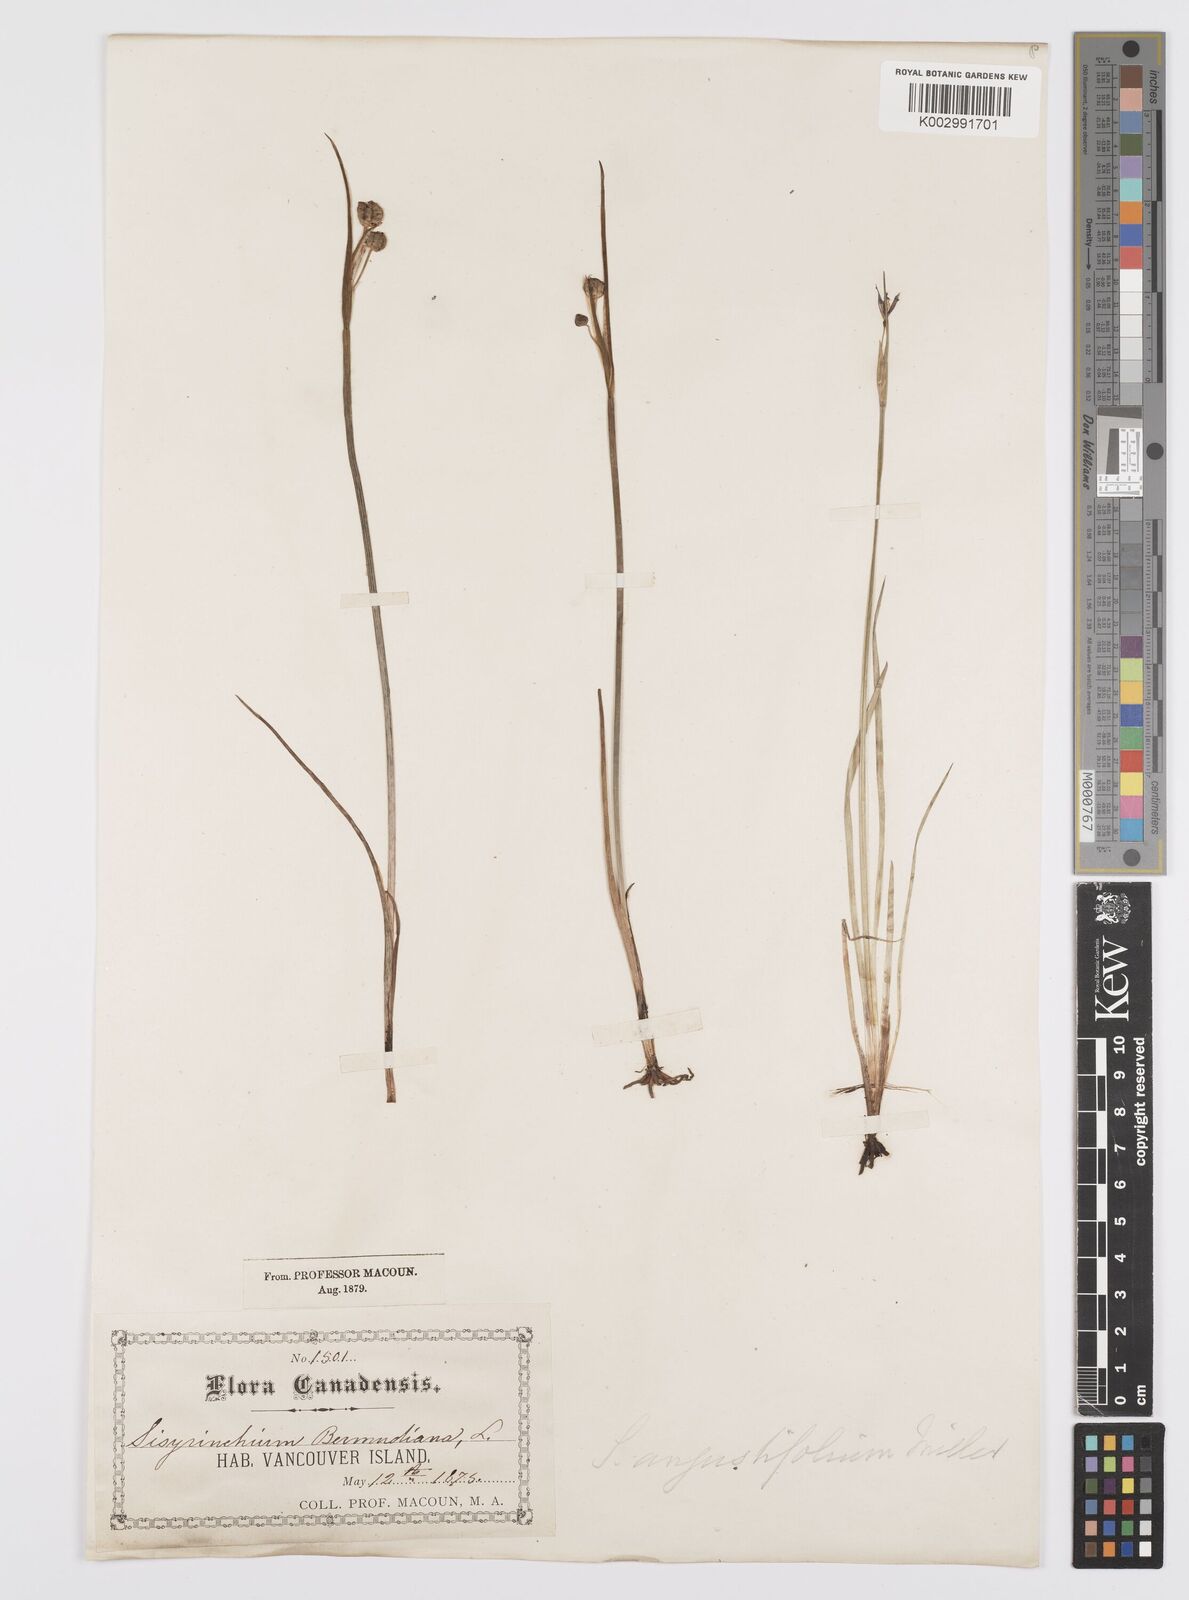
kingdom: Plantae
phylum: Tracheophyta
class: Liliopsida
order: Asparagales
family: Iridaceae
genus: Sisyrinchium
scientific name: Sisyrinchium bellum
